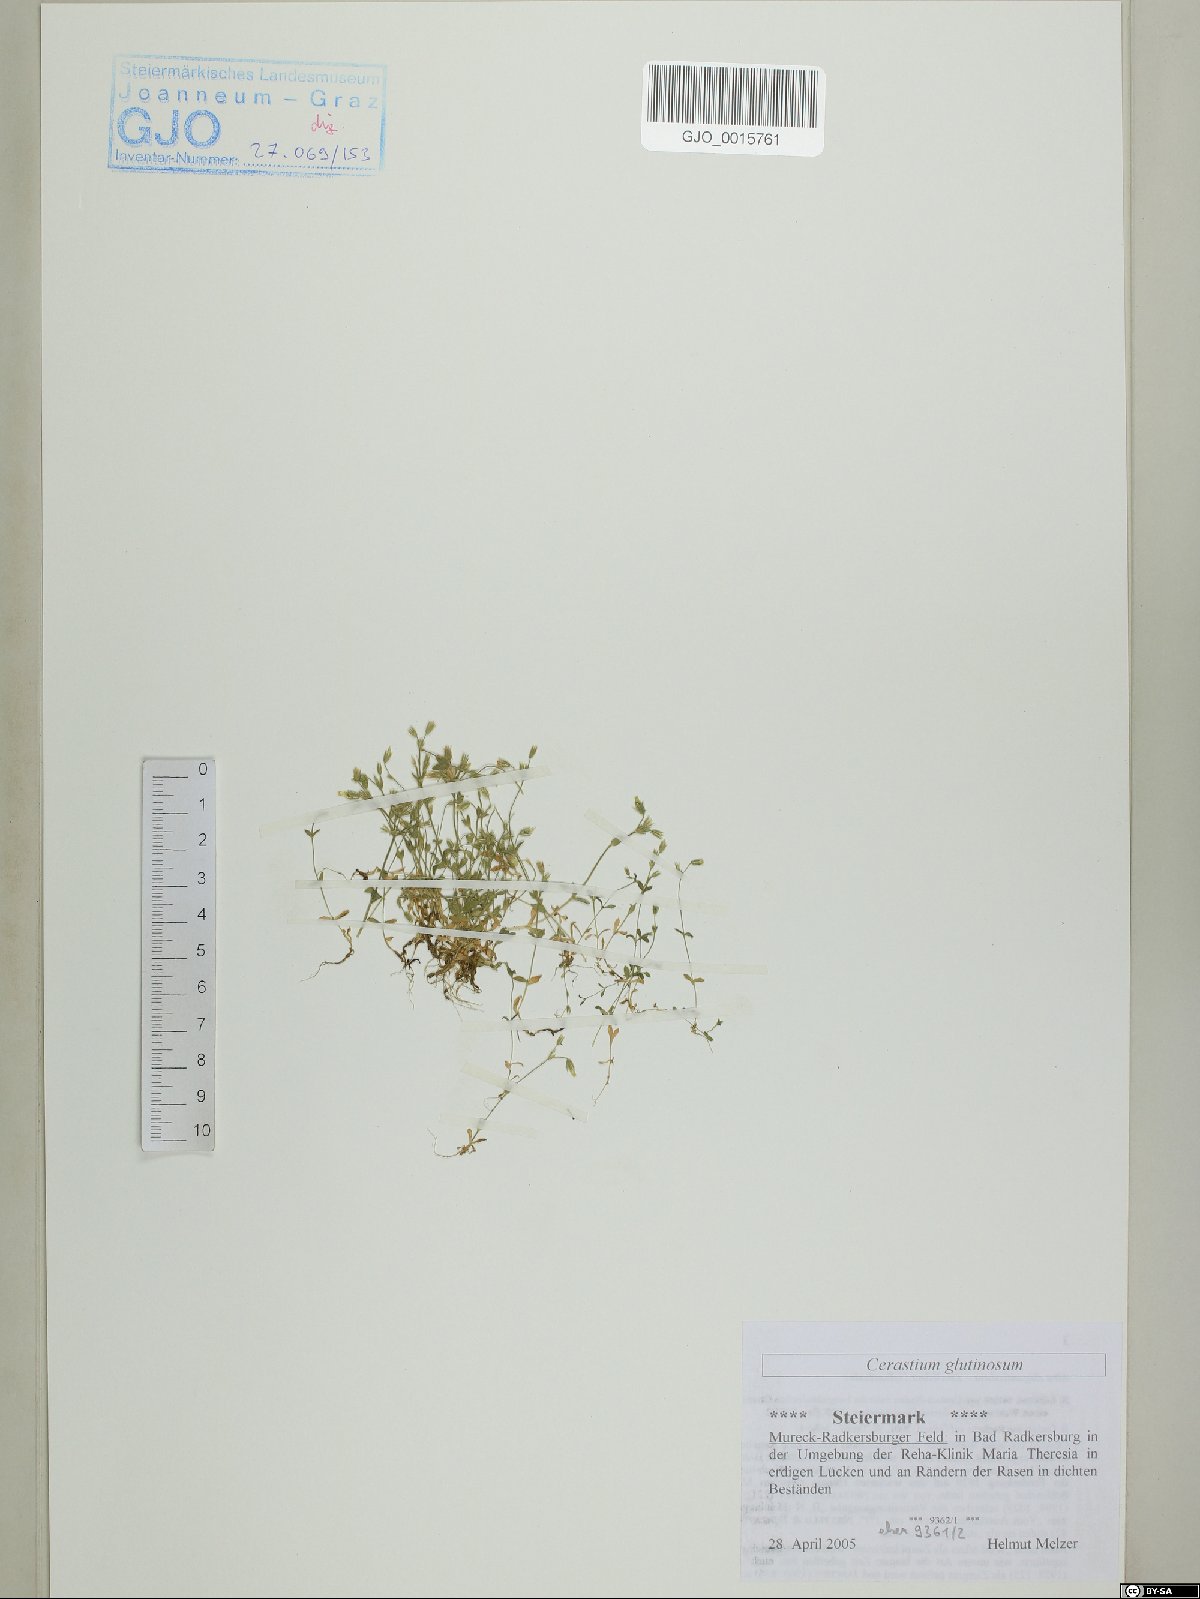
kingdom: Plantae
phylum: Tracheophyta
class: Magnoliopsida
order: Caryophyllales
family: Caryophyllaceae
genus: Cerastium
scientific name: Cerastium glutinosum
